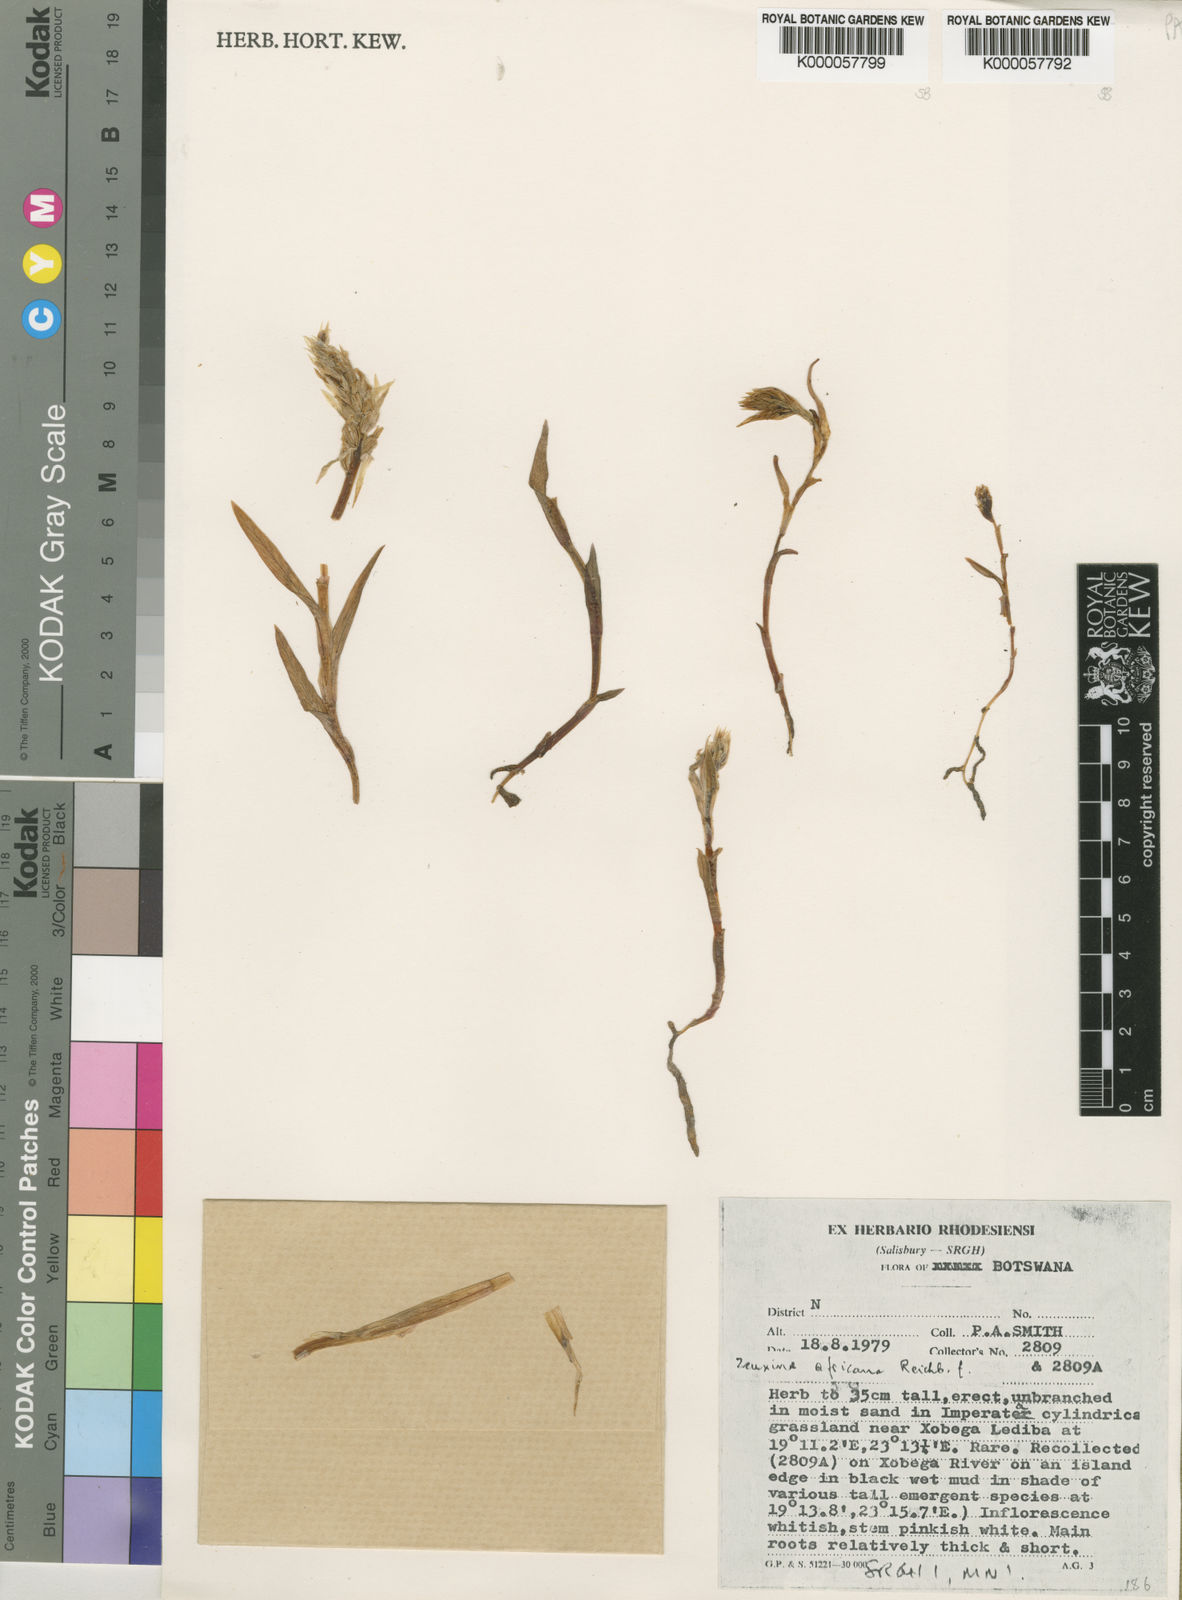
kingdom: Plantae
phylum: Tracheophyta
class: Liliopsida
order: Asparagales
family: Orchidaceae
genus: Zeuxine
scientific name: Zeuxine africana
